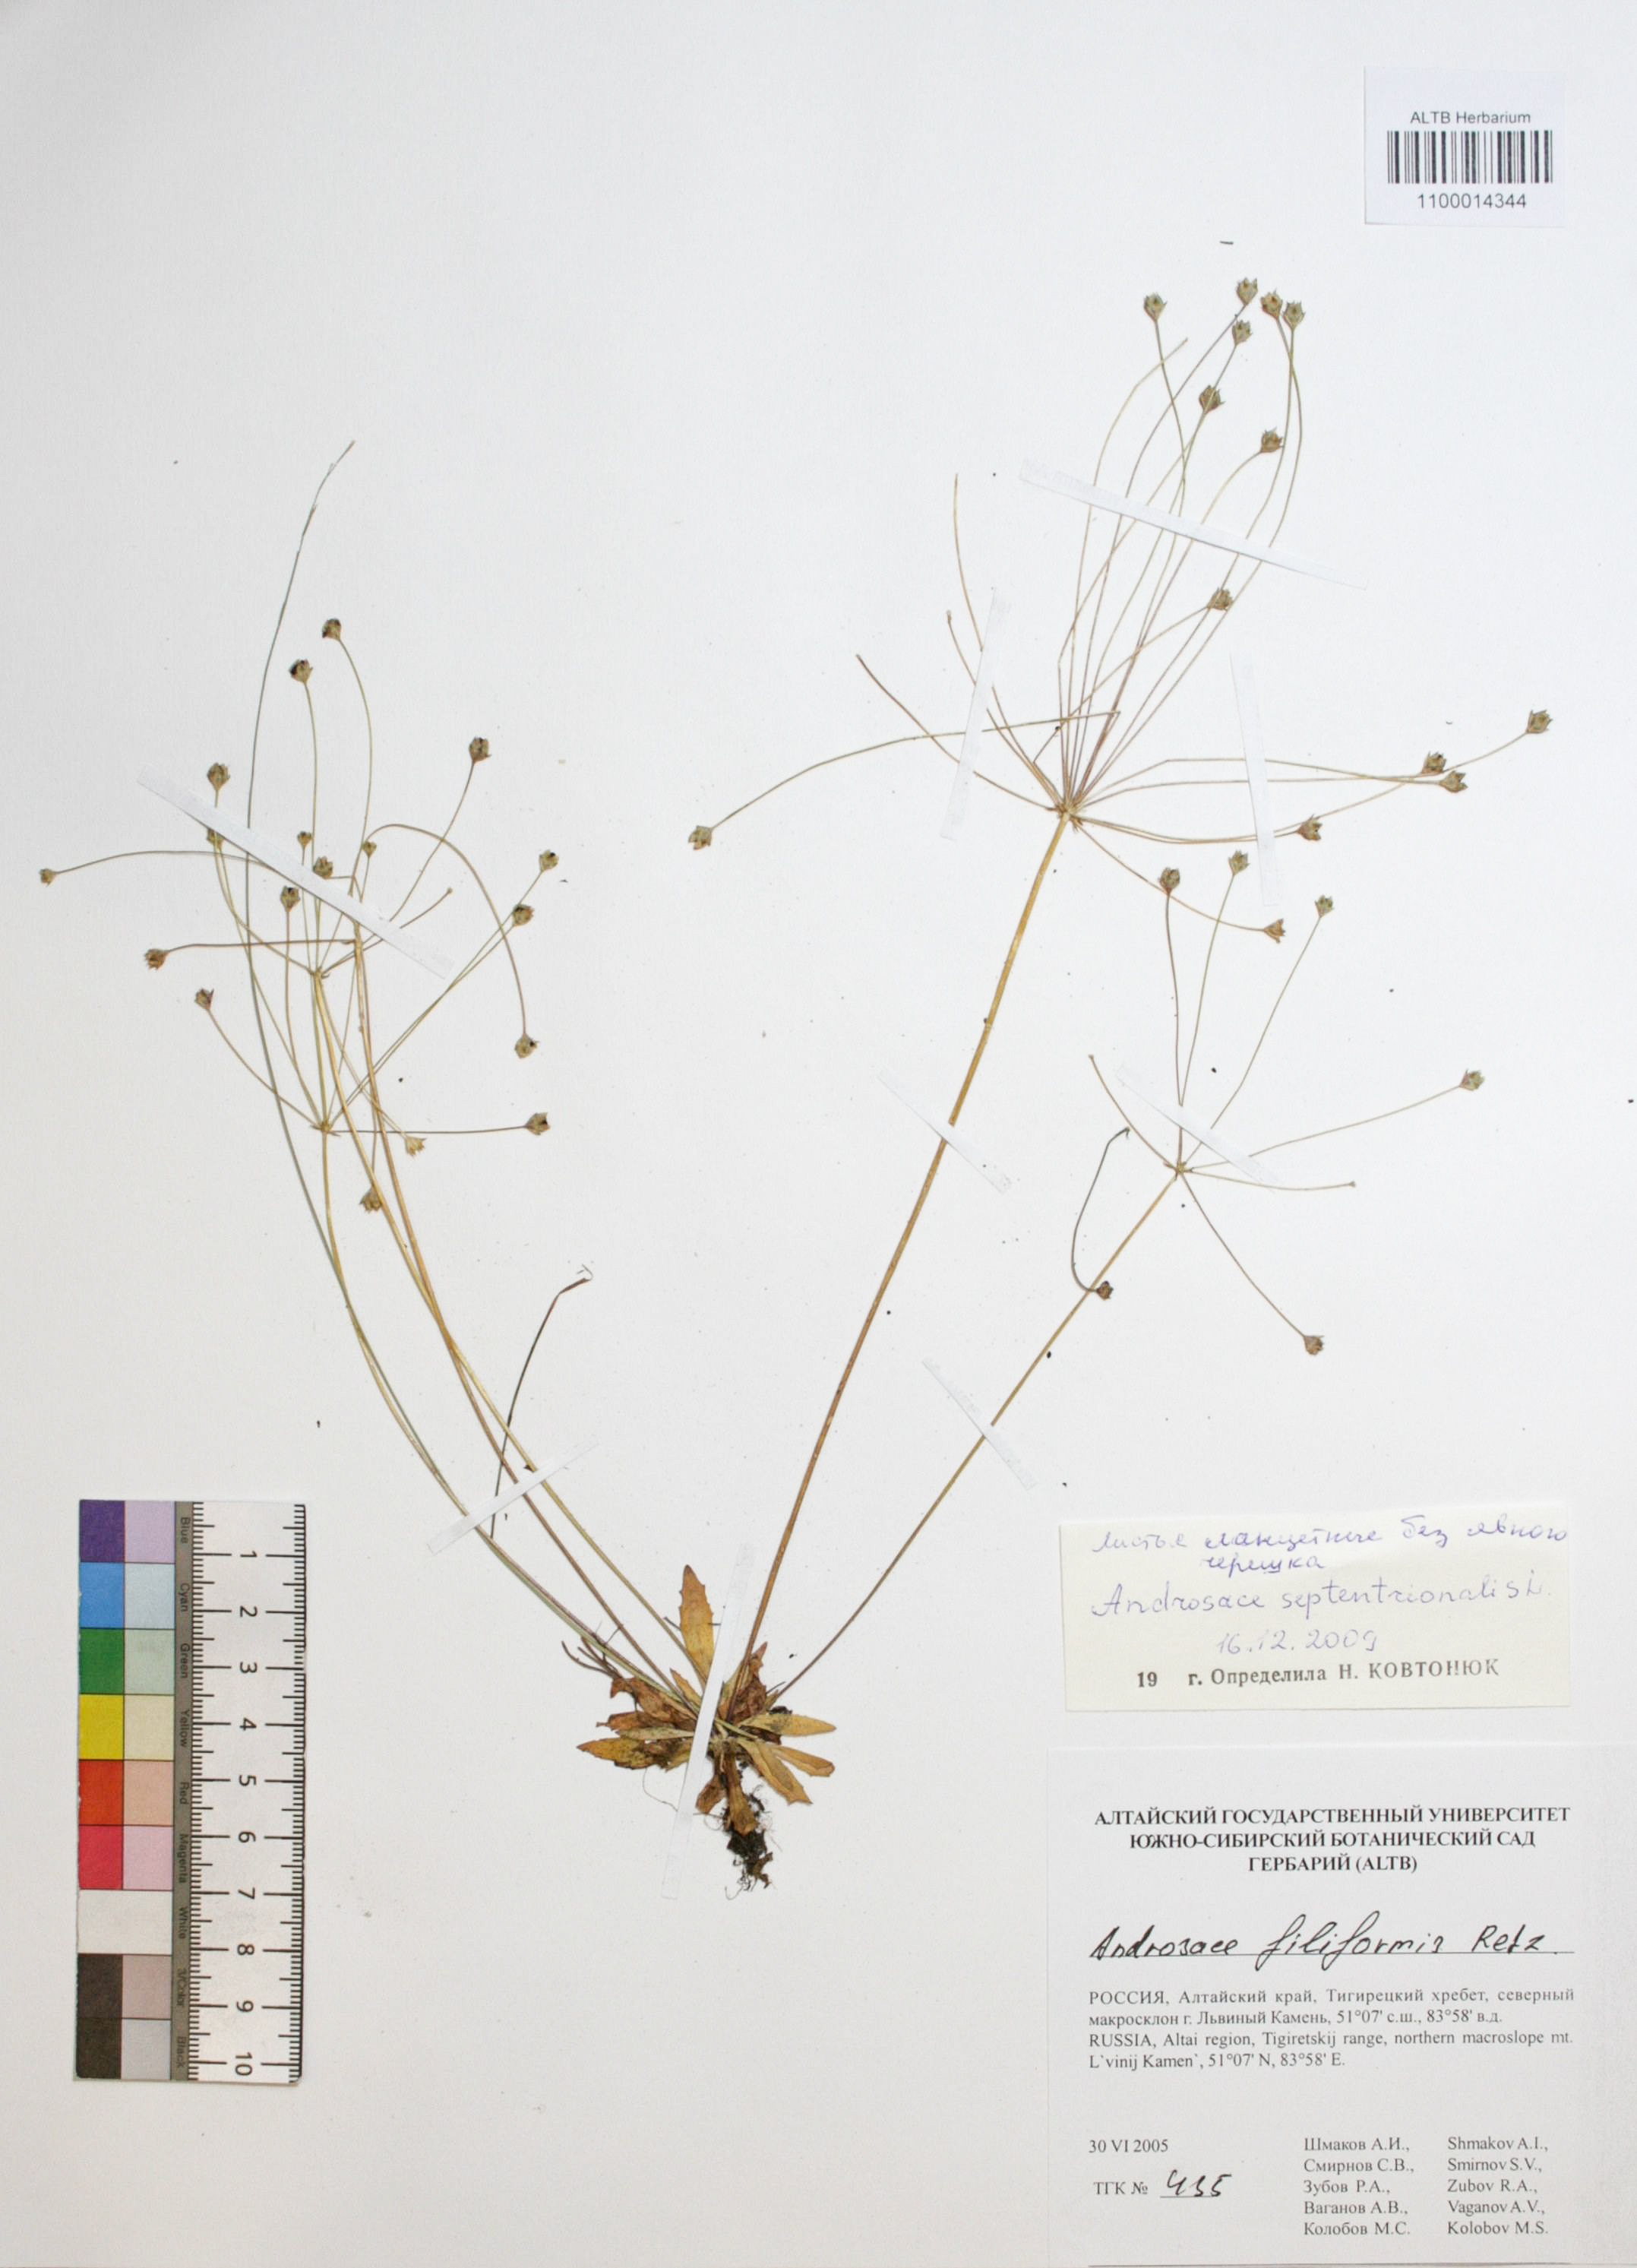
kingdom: Plantae
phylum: Tracheophyta
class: Magnoliopsida
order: Ericales
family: Primulaceae
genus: Androsace
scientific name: Androsace septentrionalis
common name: Hairy northern fairy-candelabra
